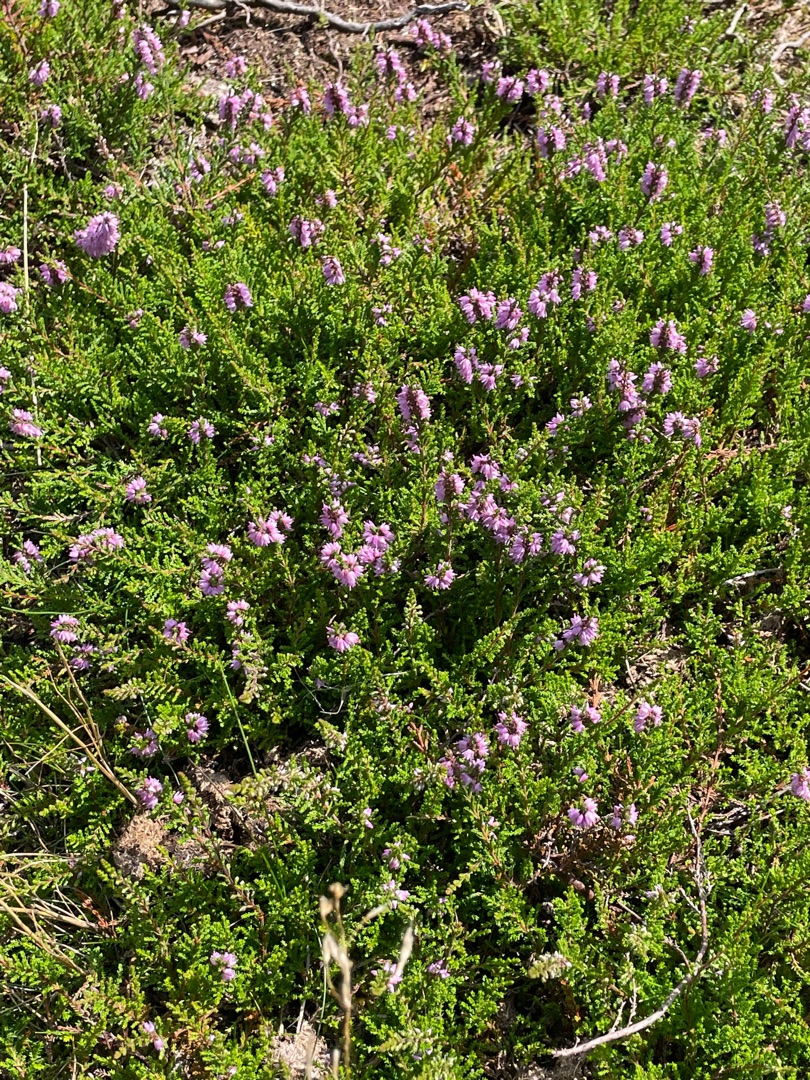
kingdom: Plantae
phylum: Tracheophyta
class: Magnoliopsida
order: Ericales
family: Ericaceae
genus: Calluna
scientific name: Calluna vulgaris
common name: Hedelyng
